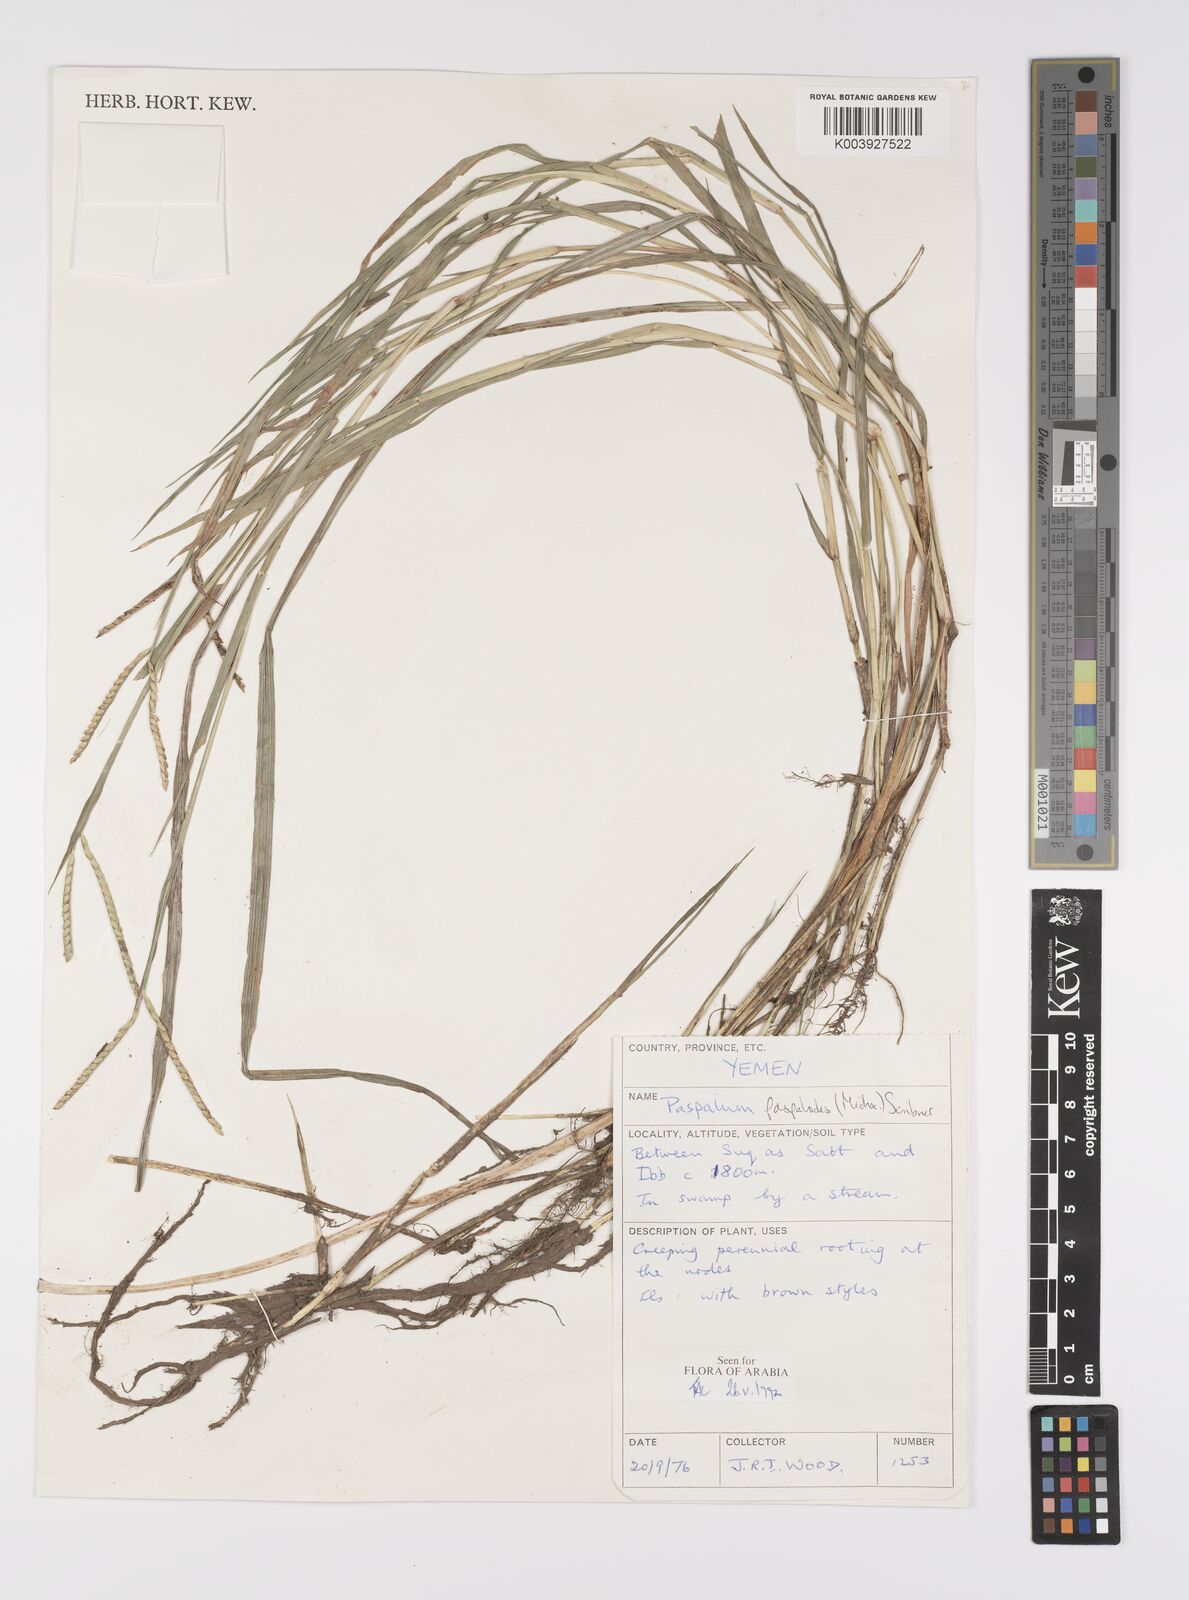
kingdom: Plantae
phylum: Tracheophyta
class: Liliopsida
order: Poales
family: Poaceae
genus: Paspalum
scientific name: Paspalum distichum
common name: Knotgrass
